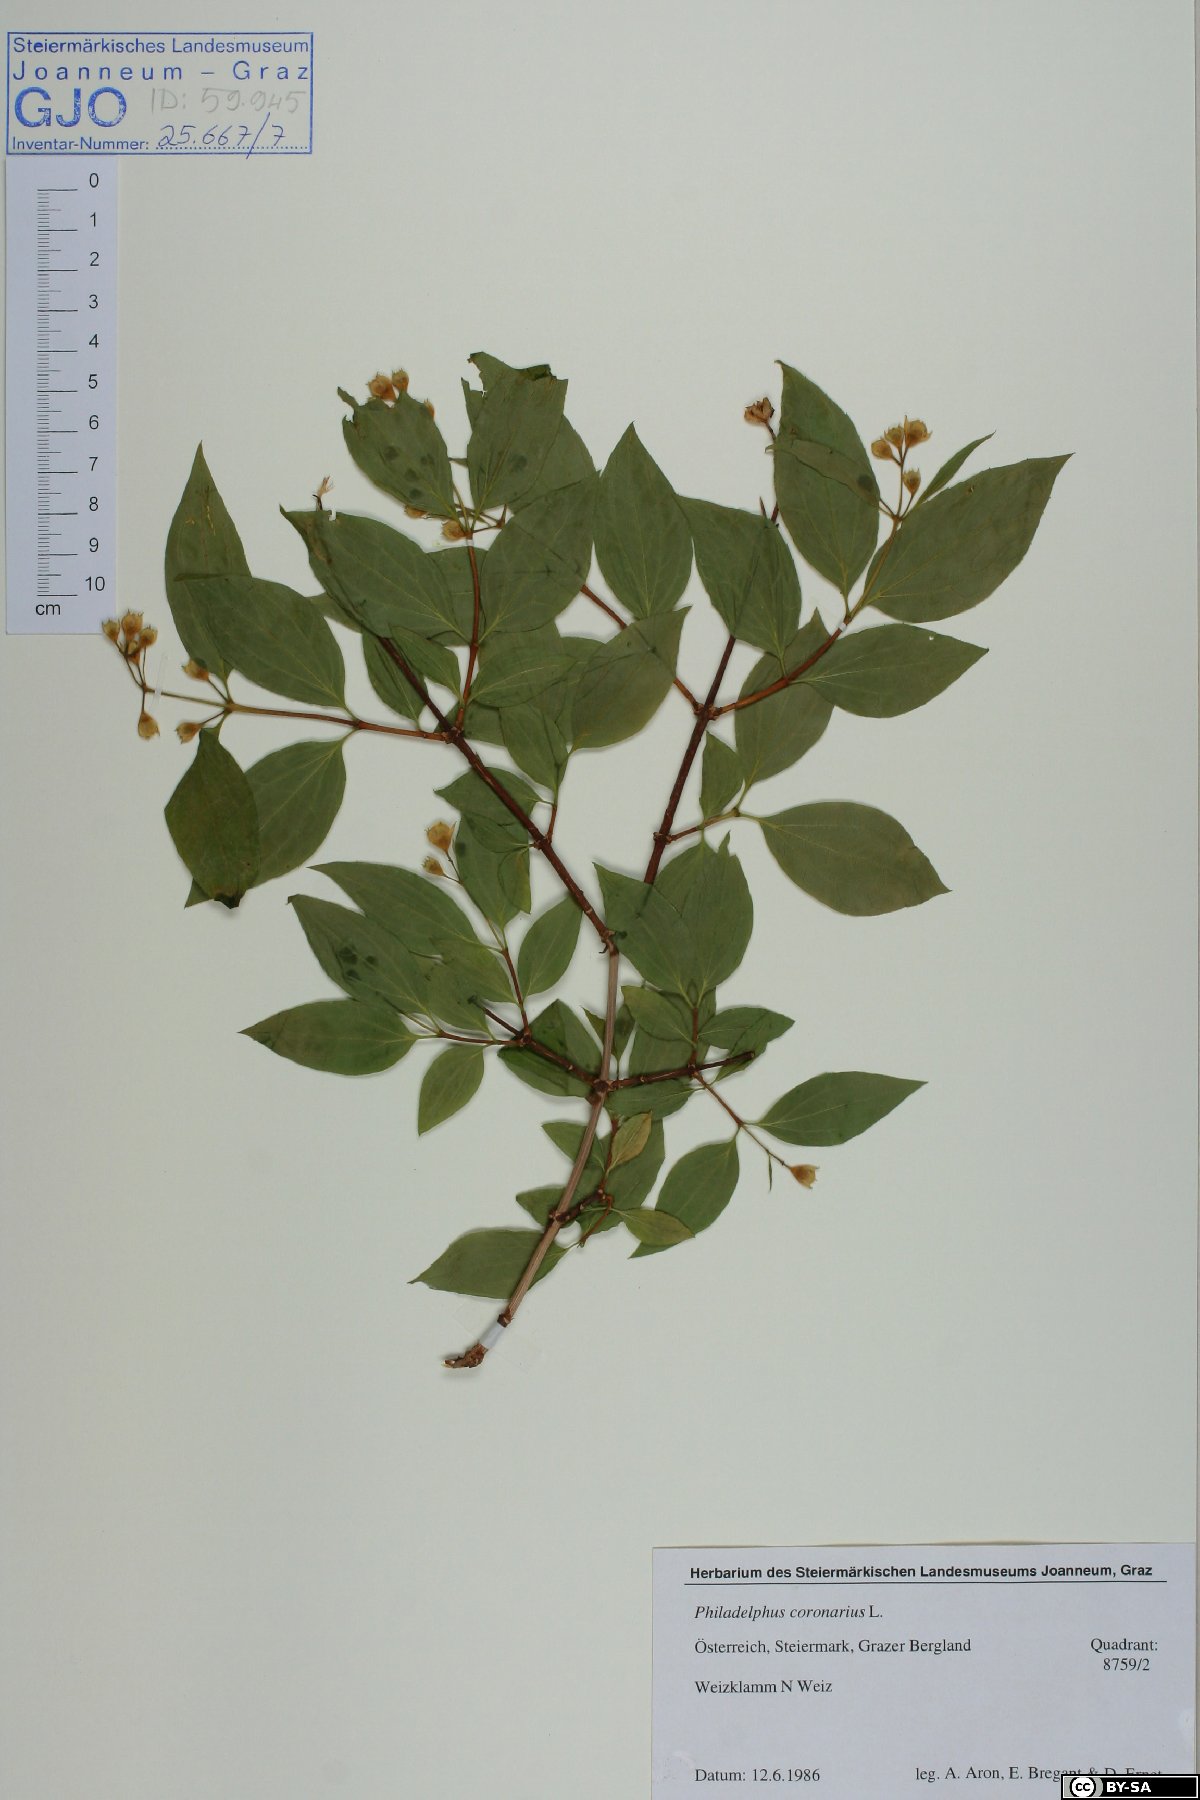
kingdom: Plantae
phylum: Tracheophyta
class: Magnoliopsida
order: Cornales
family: Hydrangeaceae
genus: Philadelphus
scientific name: Philadelphus coronarius
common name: Mock orange
